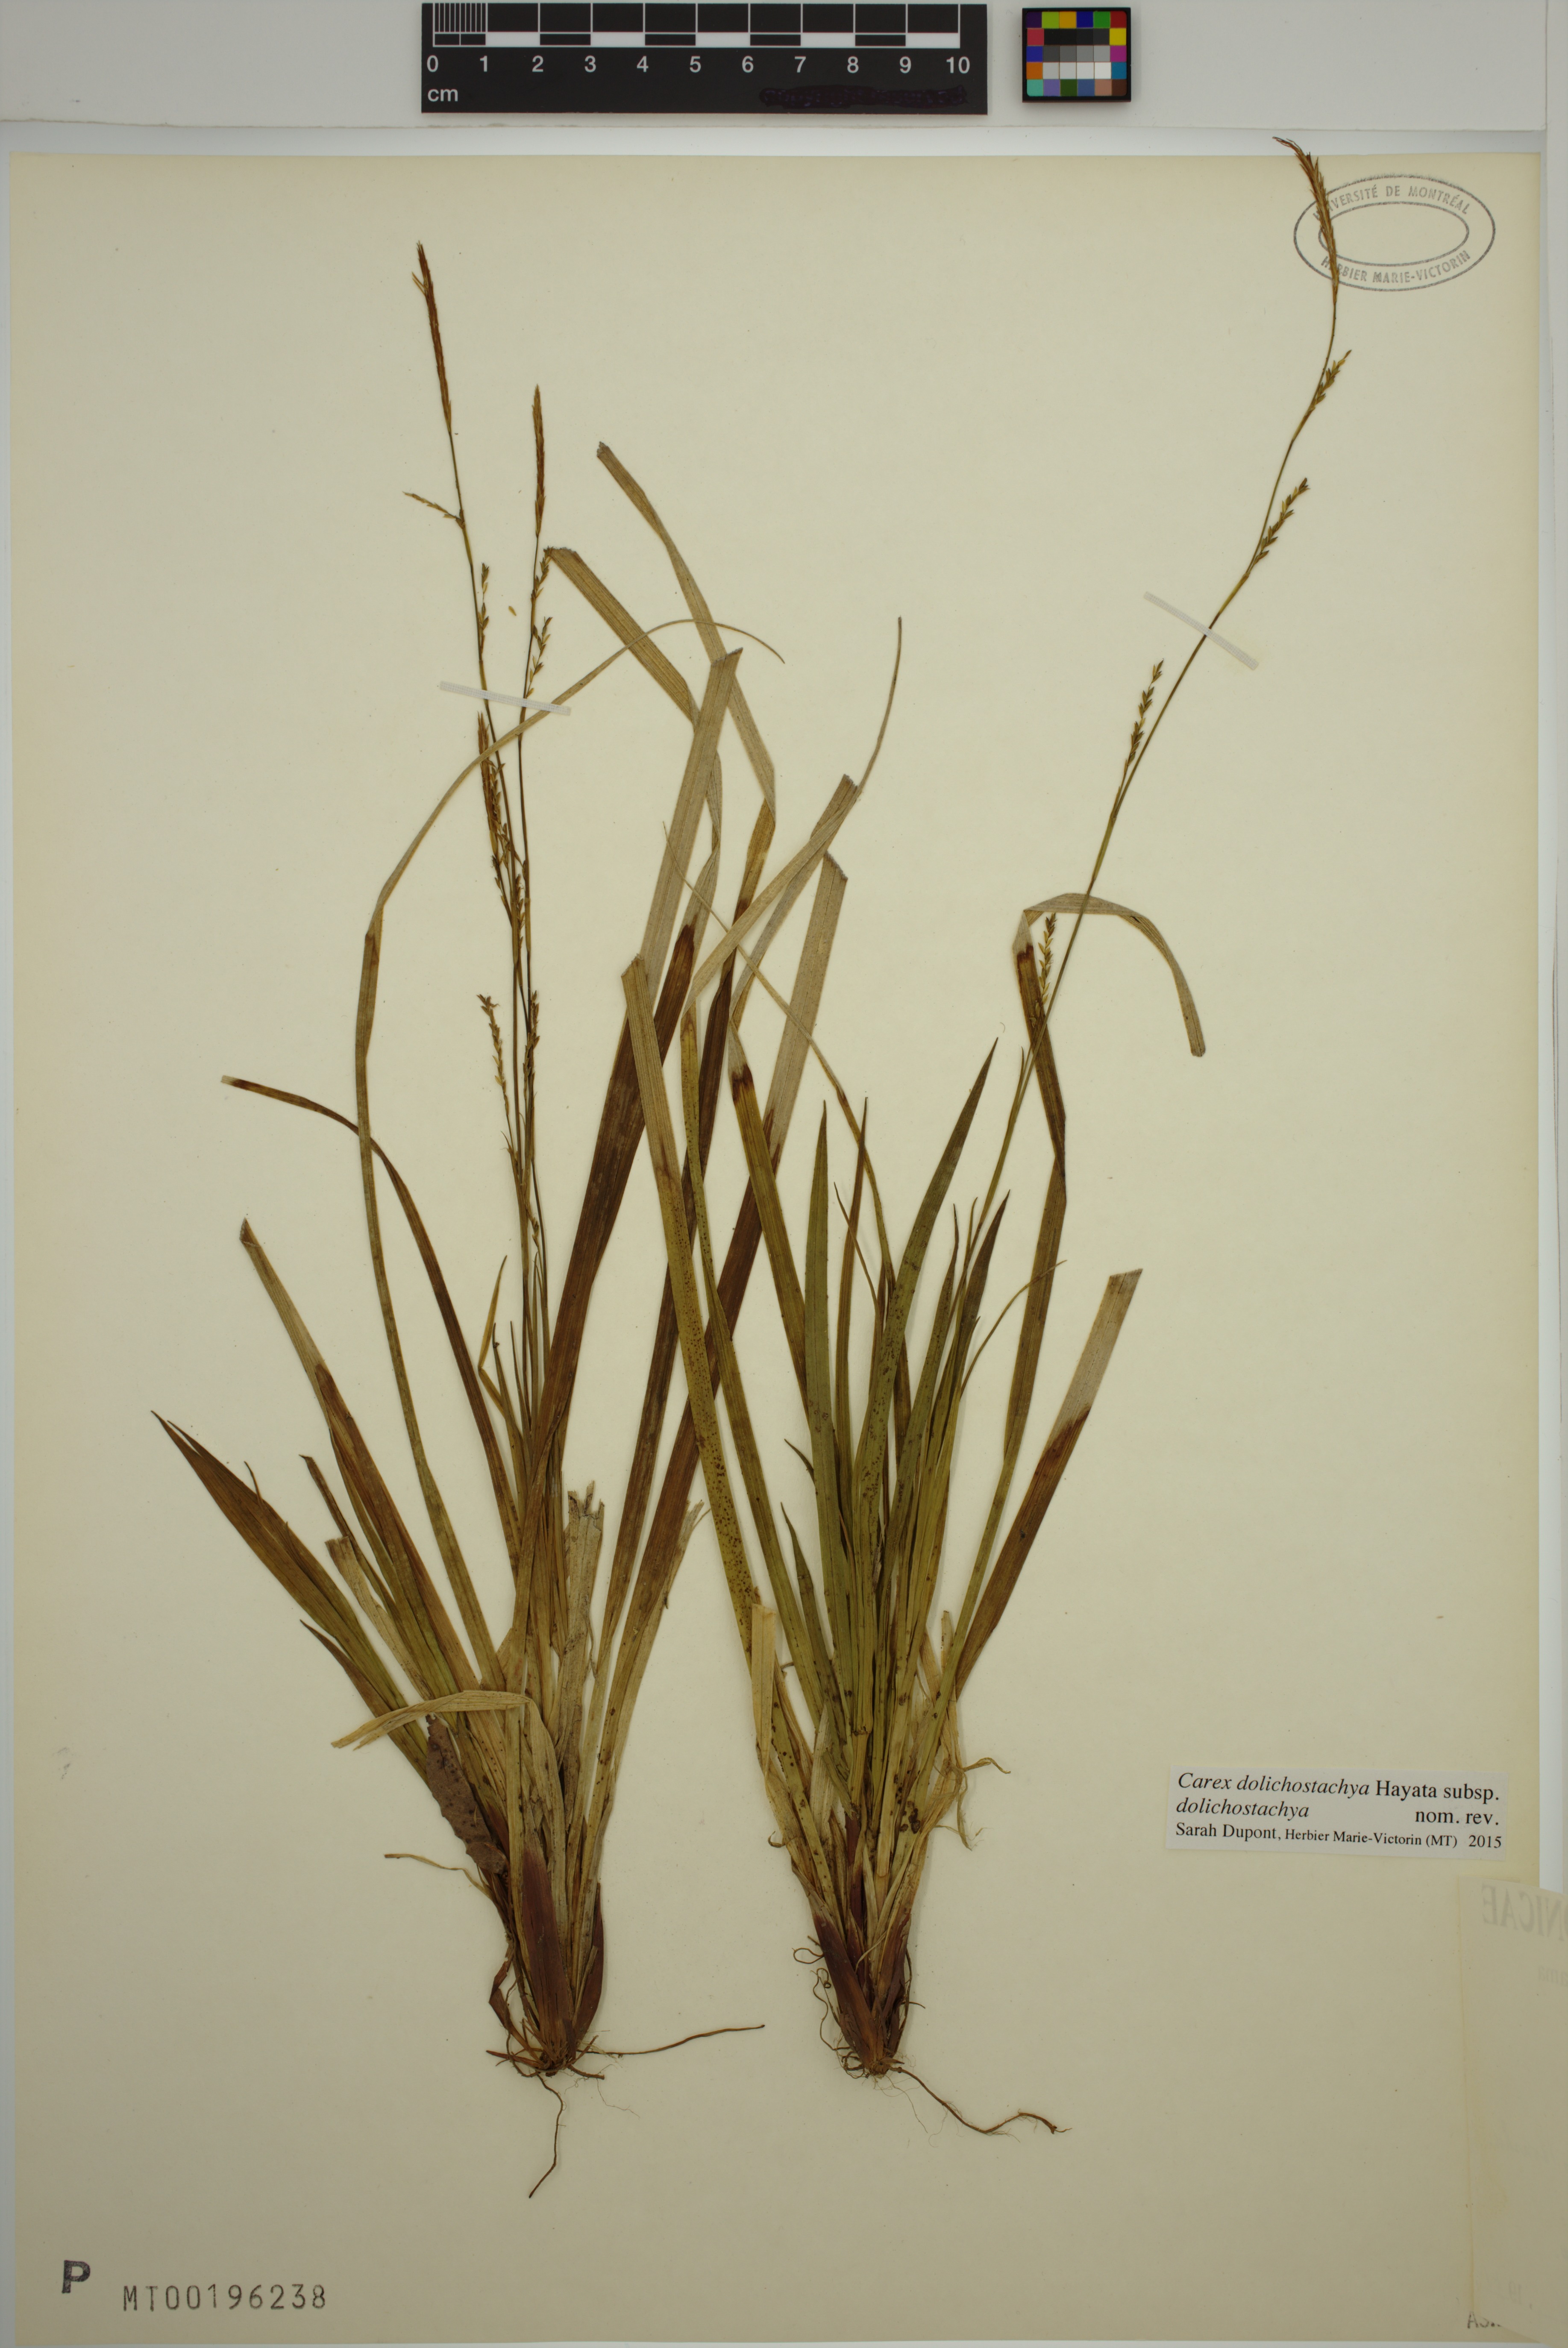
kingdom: Plantae
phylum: Tracheophyta
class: Liliopsida
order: Poales
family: Cyperaceae
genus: Carex
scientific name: Carex dolichostachya
